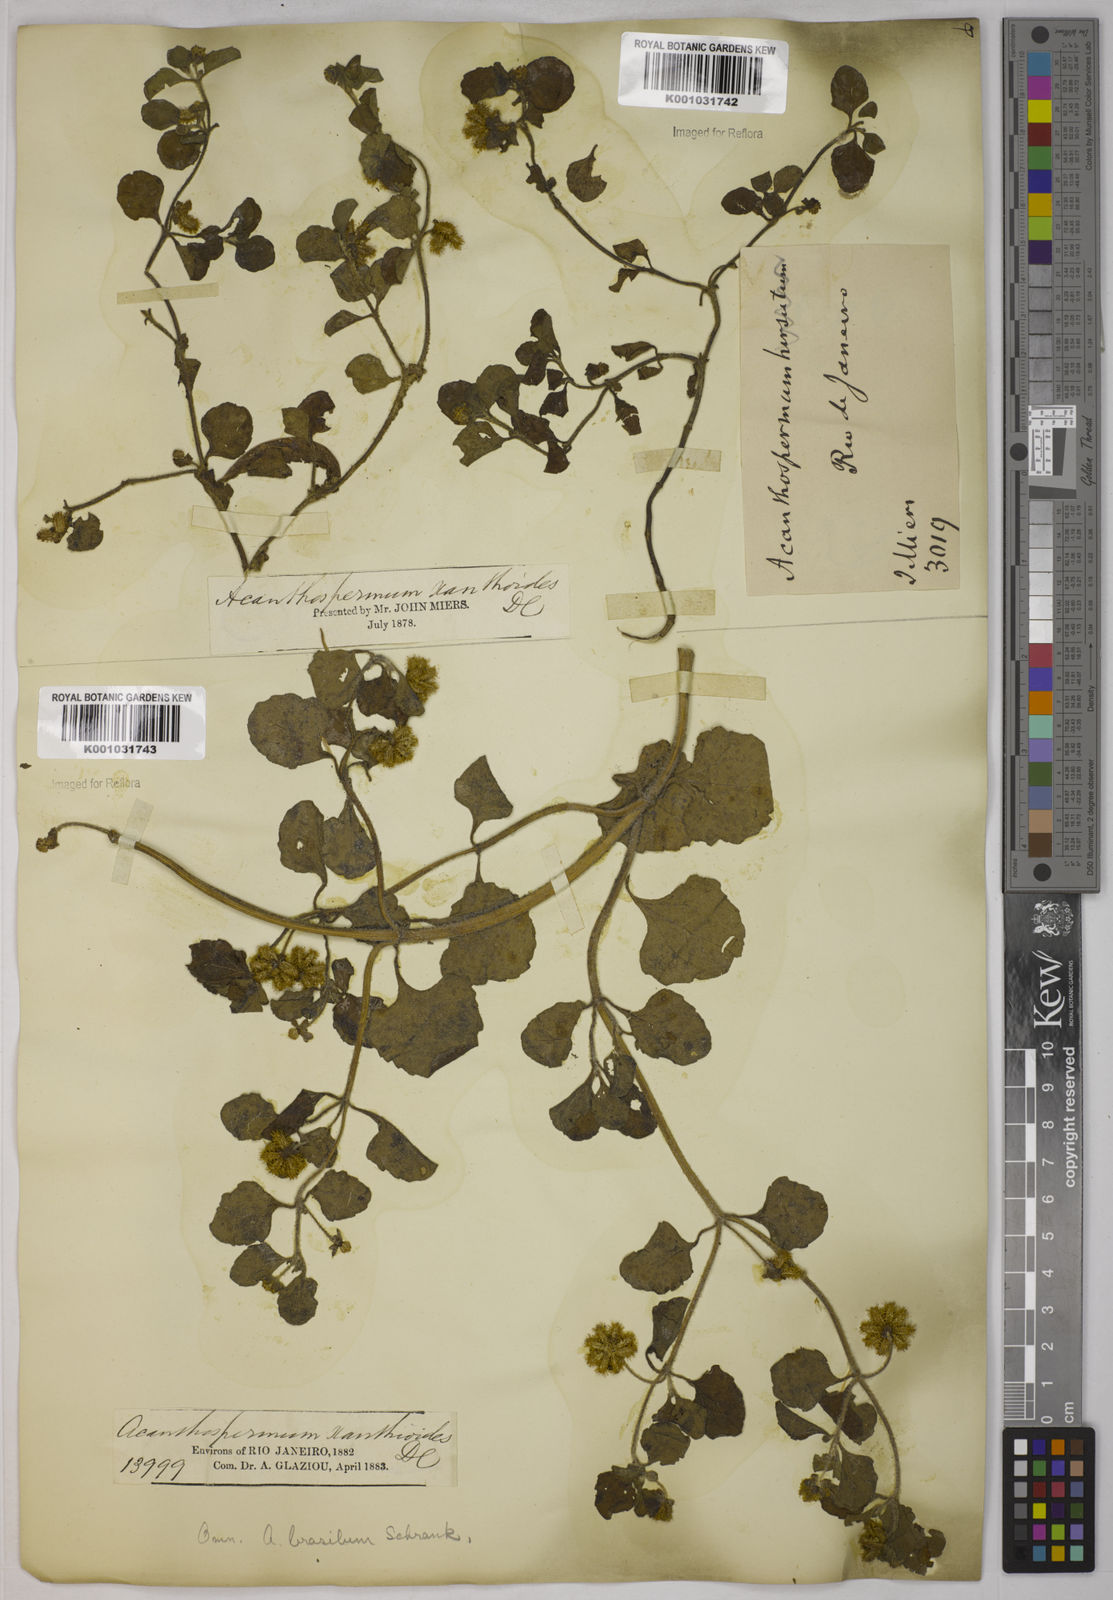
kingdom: Plantae
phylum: Tracheophyta
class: Magnoliopsida
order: Asterales
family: Asteraceae
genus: Acanthospermum
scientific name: Acanthospermum australe
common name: Paraguayan starbur
